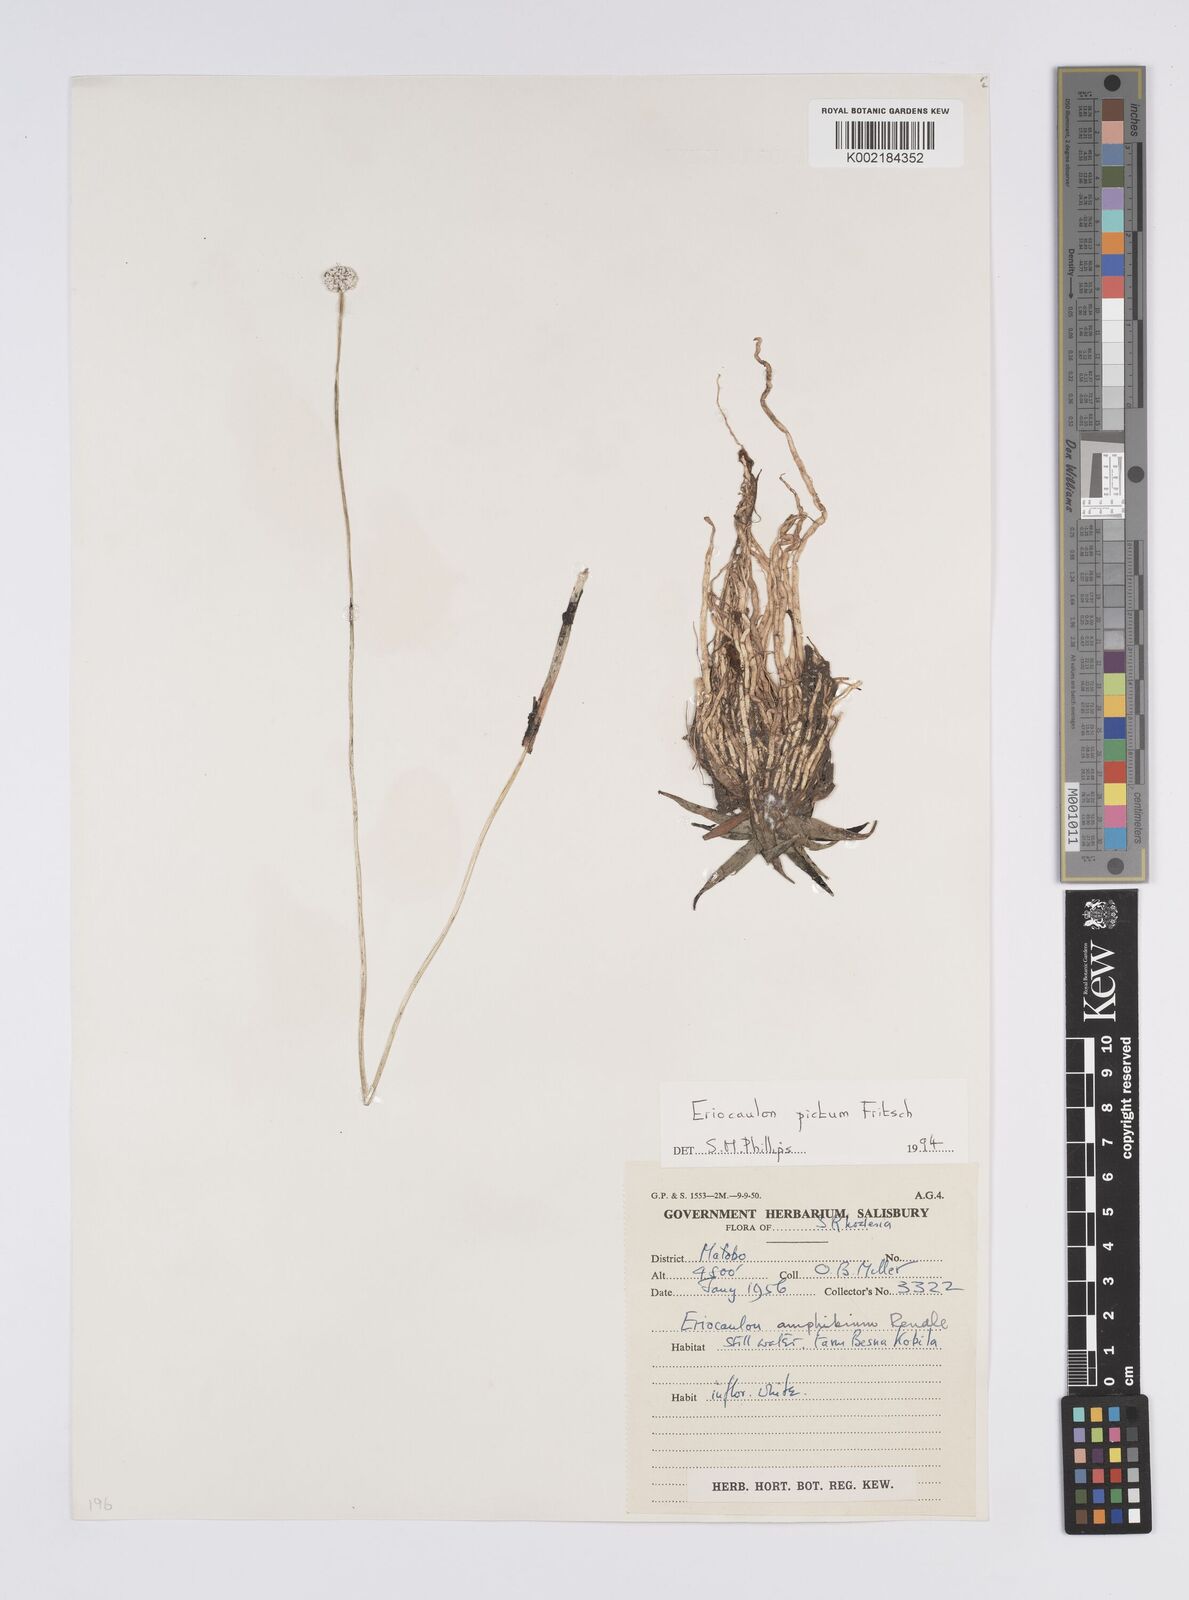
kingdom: Plantae
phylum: Tracheophyta
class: Liliopsida
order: Poales
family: Eriocaulaceae
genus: Eriocaulon
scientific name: Eriocaulon pictum
